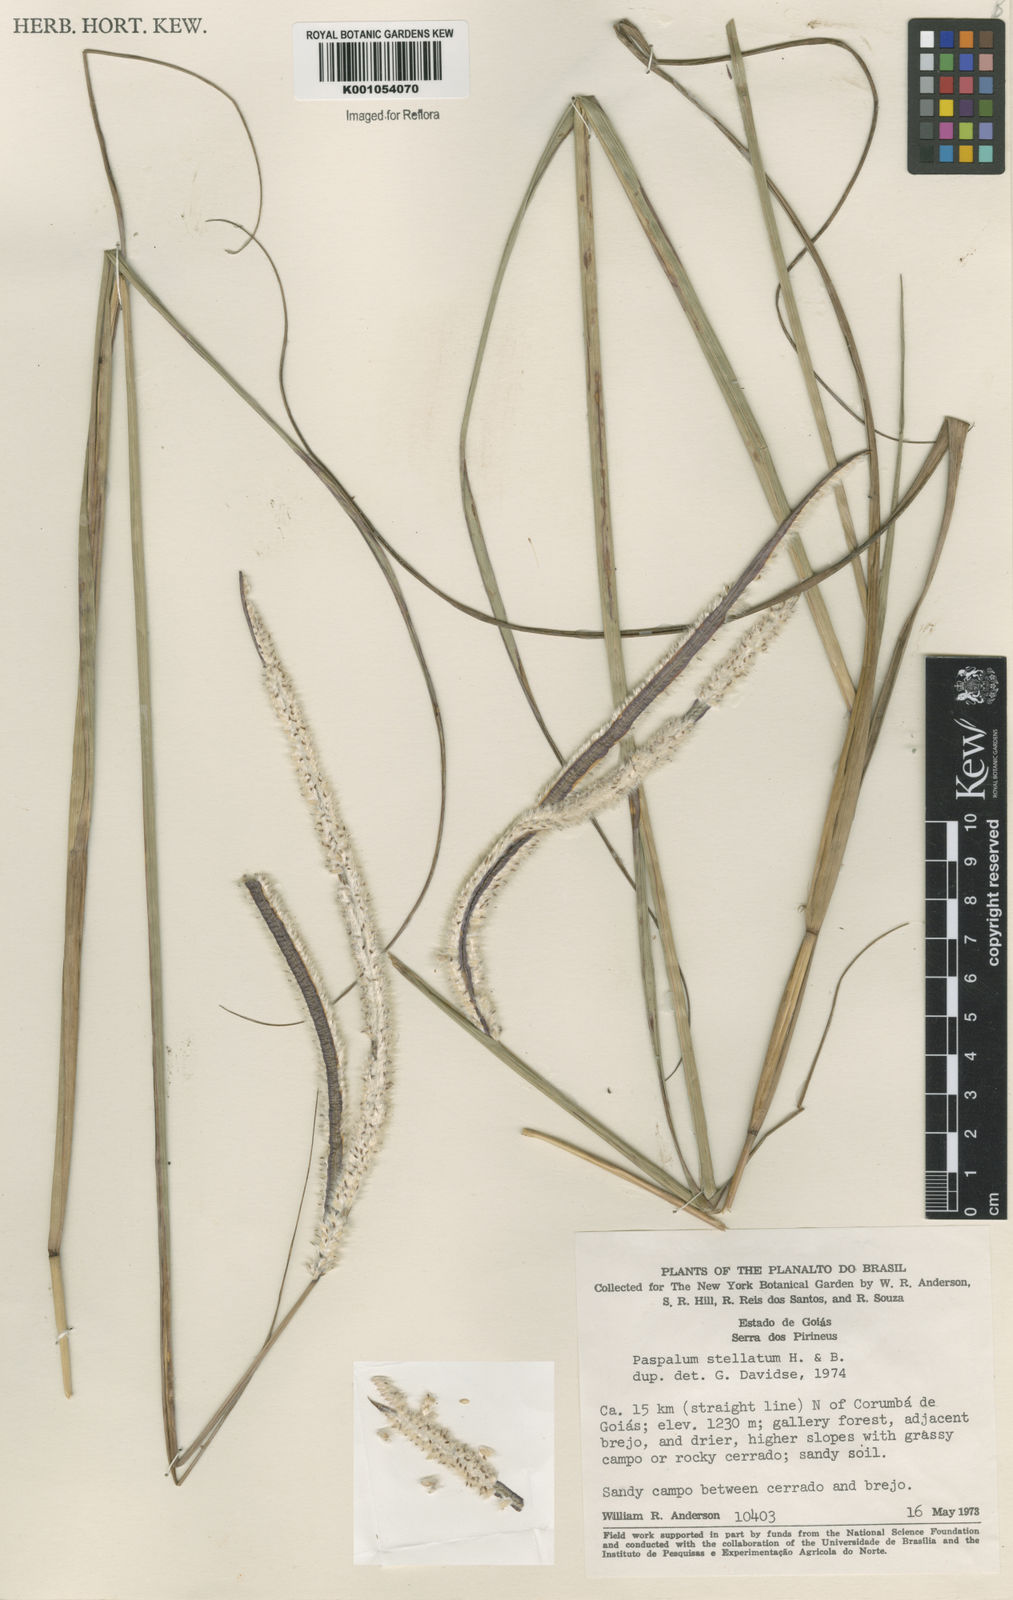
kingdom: Plantae
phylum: Tracheophyta
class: Liliopsida
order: Poales
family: Poaceae
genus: Paspalum
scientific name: Paspalum
